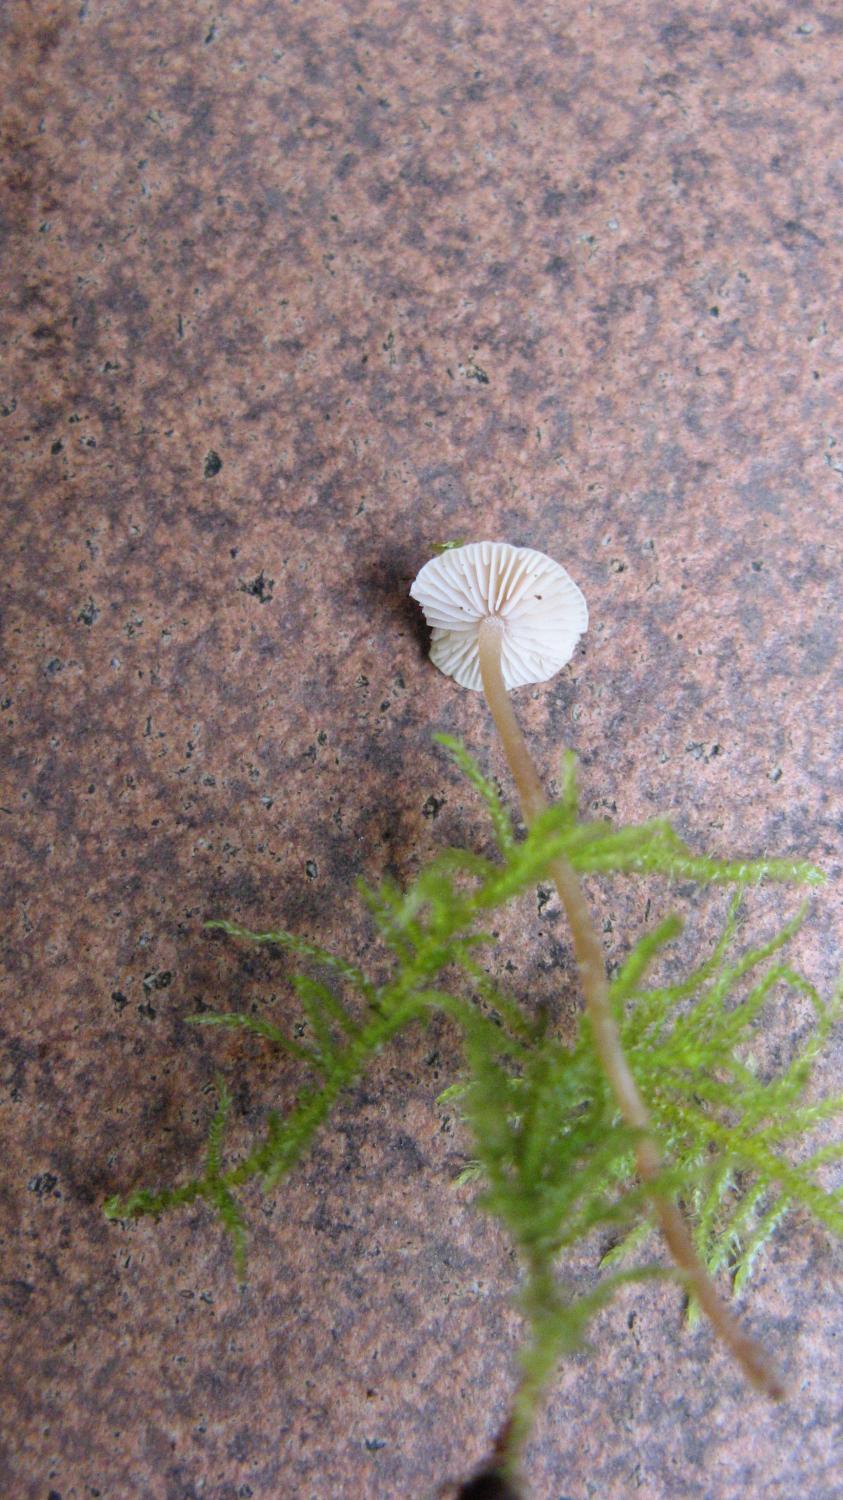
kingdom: Fungi
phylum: Basidiomycota
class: Agaricomycetes
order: Agaricales
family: Tricholomataceae
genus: Collybia
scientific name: Collybia cirrhata
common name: silke-lighat
